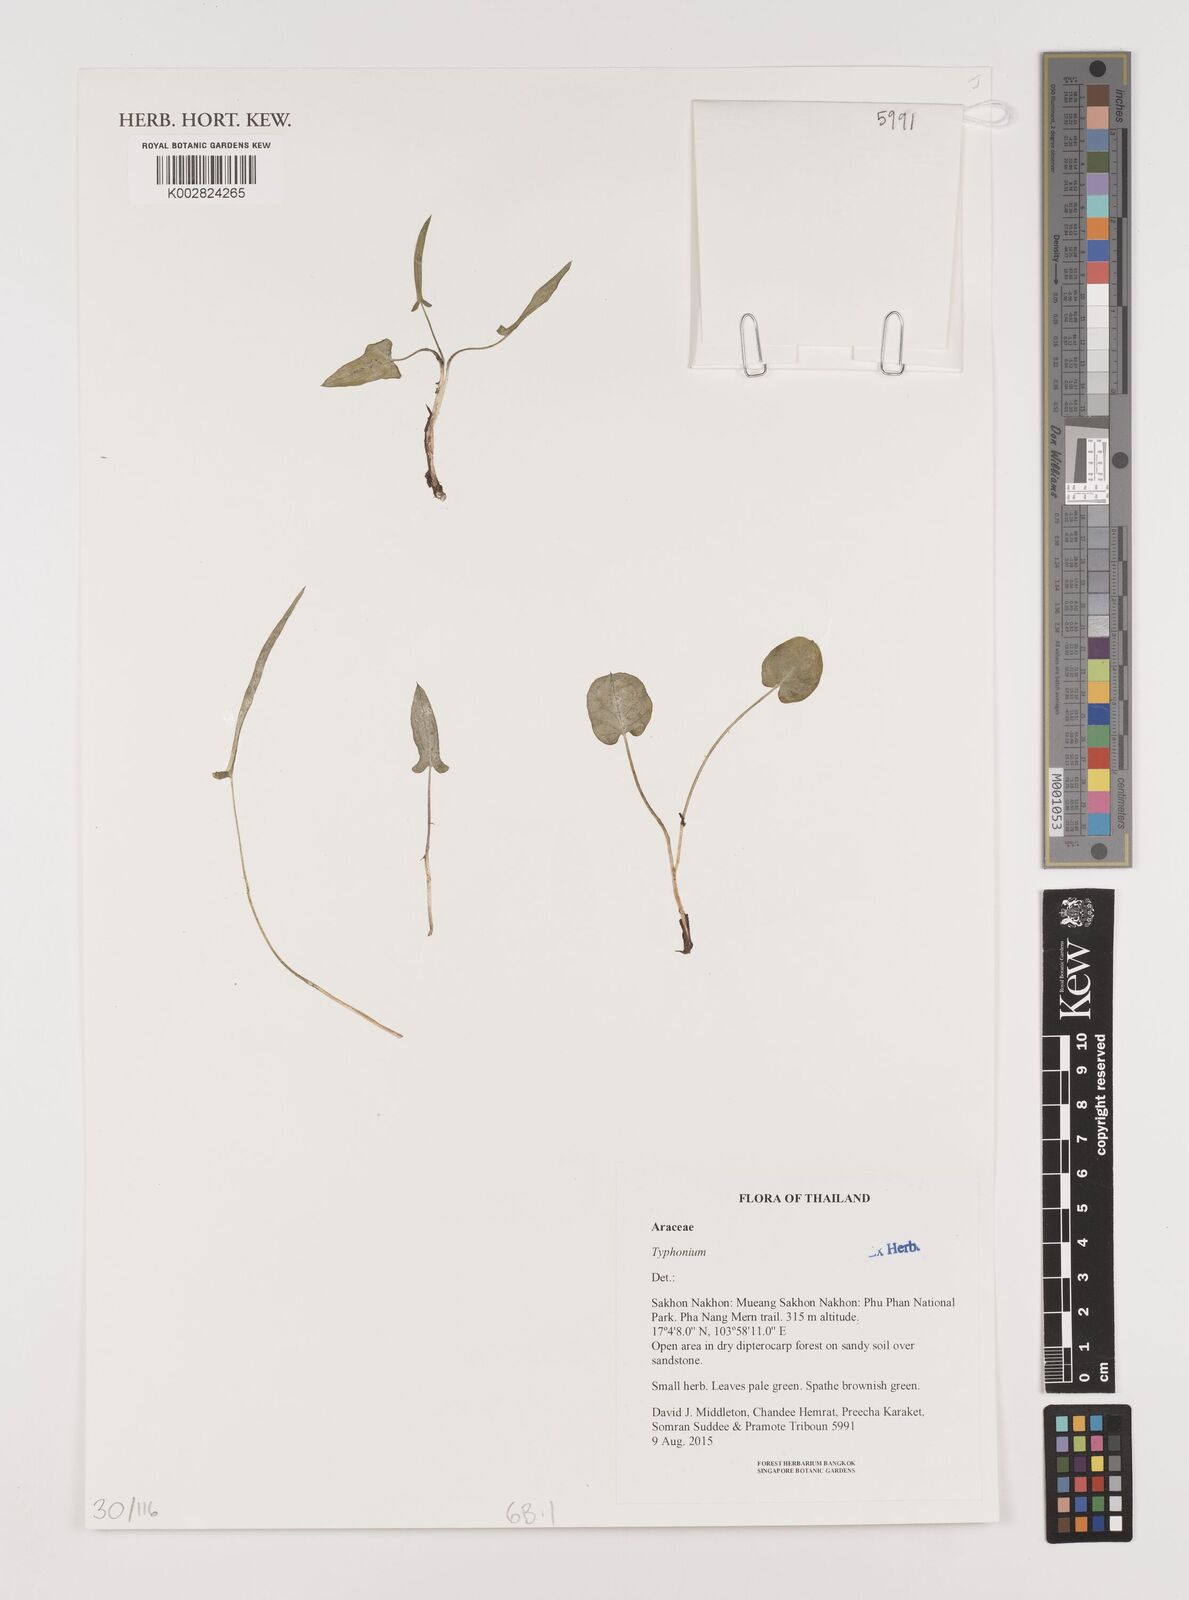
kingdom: Plantae
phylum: Tracheophyta
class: Liliopsida
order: Alismatales
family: Araceae
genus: Typhonium
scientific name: Typhonium
